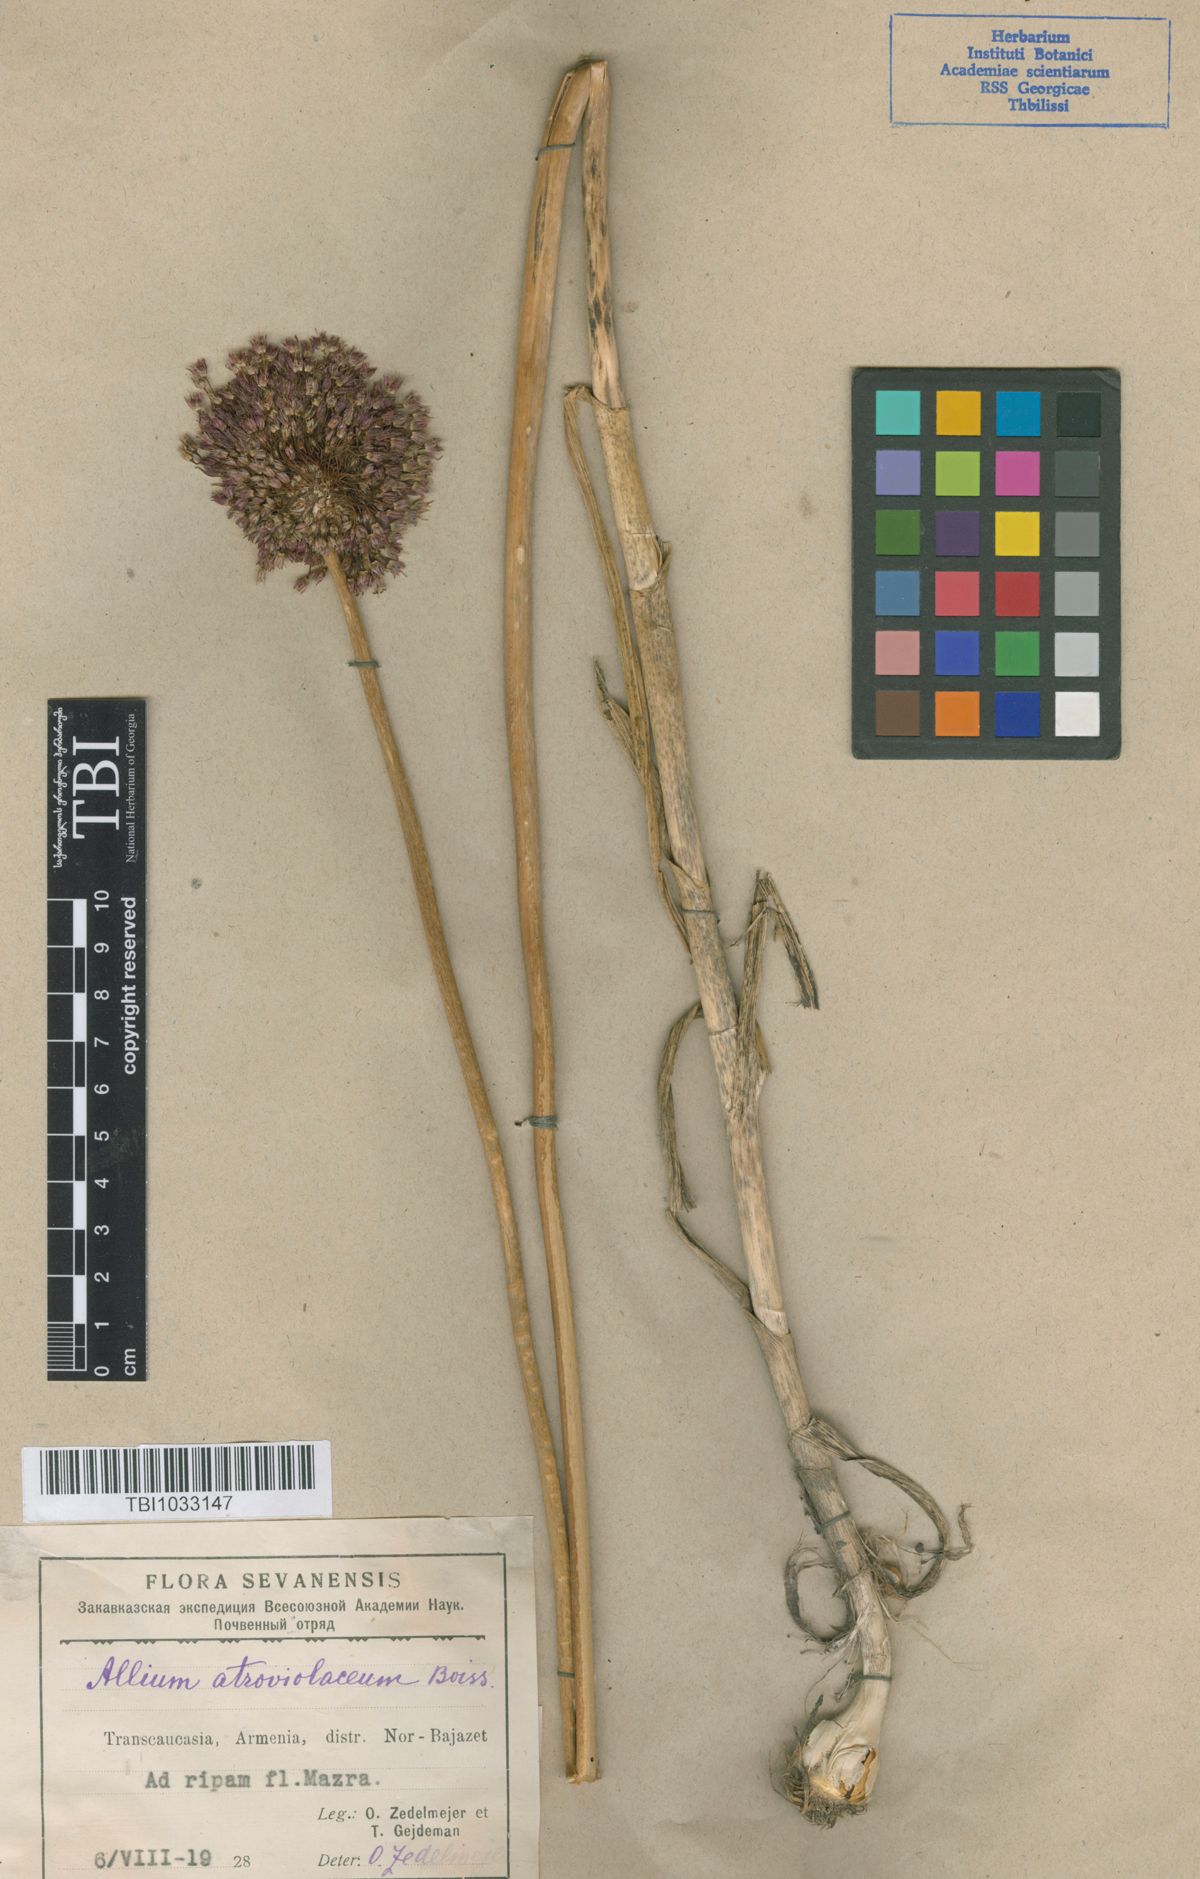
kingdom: Plantae
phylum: Tracheophyta
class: Liliopsida
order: Asparagales
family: Amaryllidaceae
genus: Allium
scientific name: Allium atroviolaceum
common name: Broadleaf wild leek
